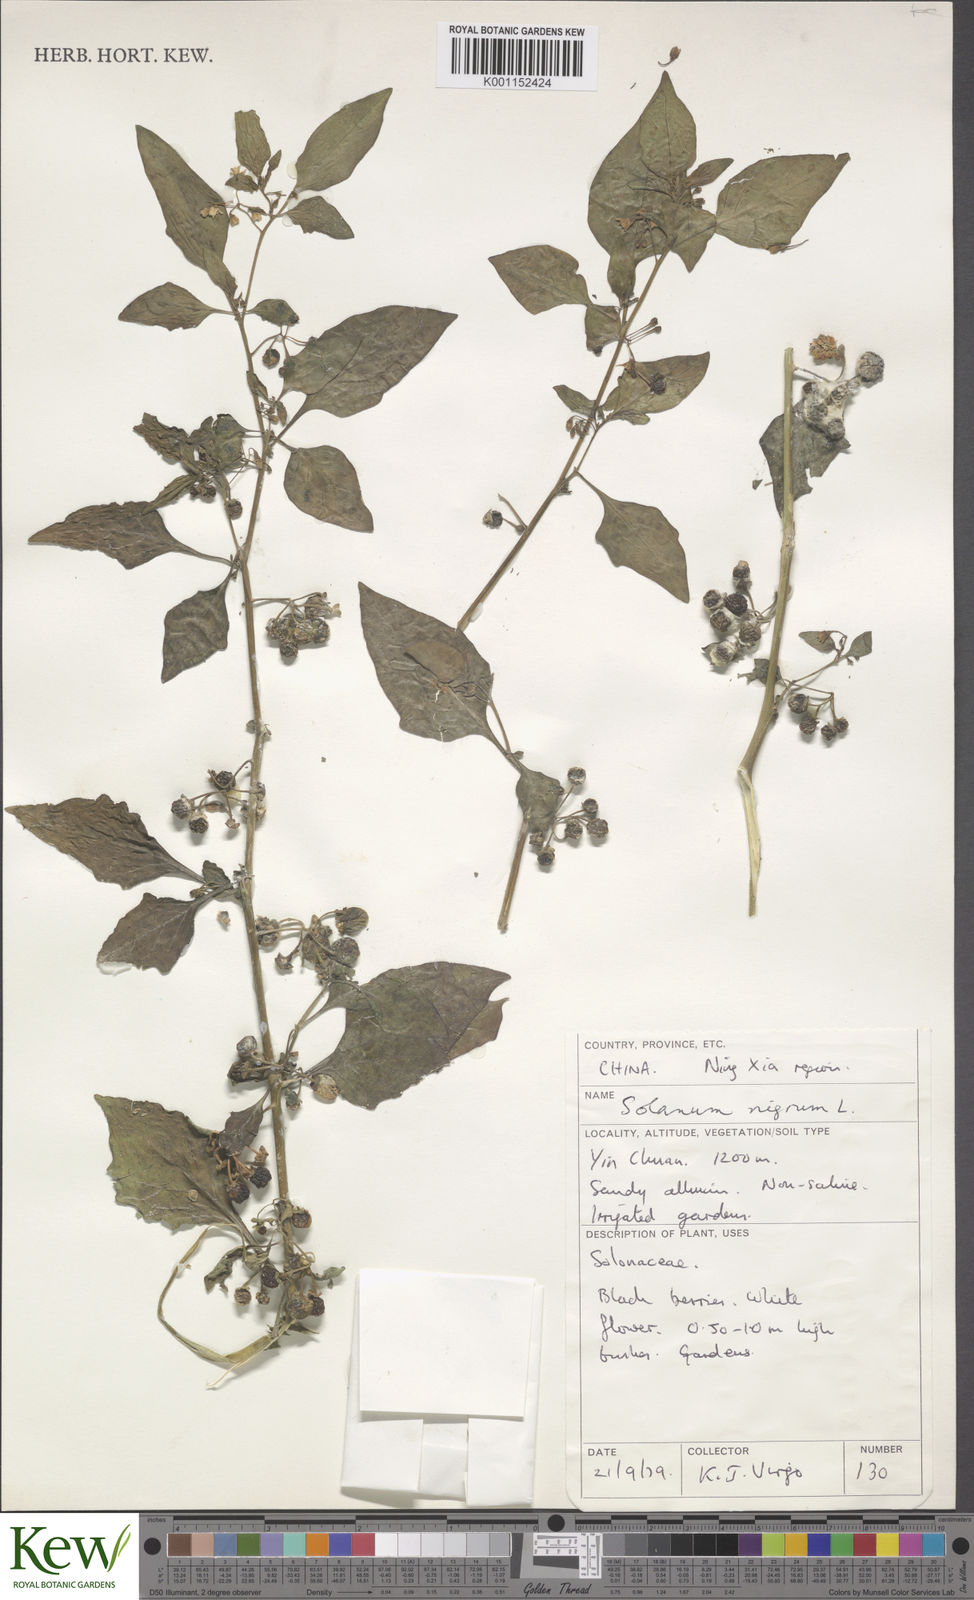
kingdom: Plantae
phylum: Tracheophyta
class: Magnoliopsida
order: Solanales
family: Solanaceae
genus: Solanum
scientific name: Solanum scabrum
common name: Garden-huckleberry
